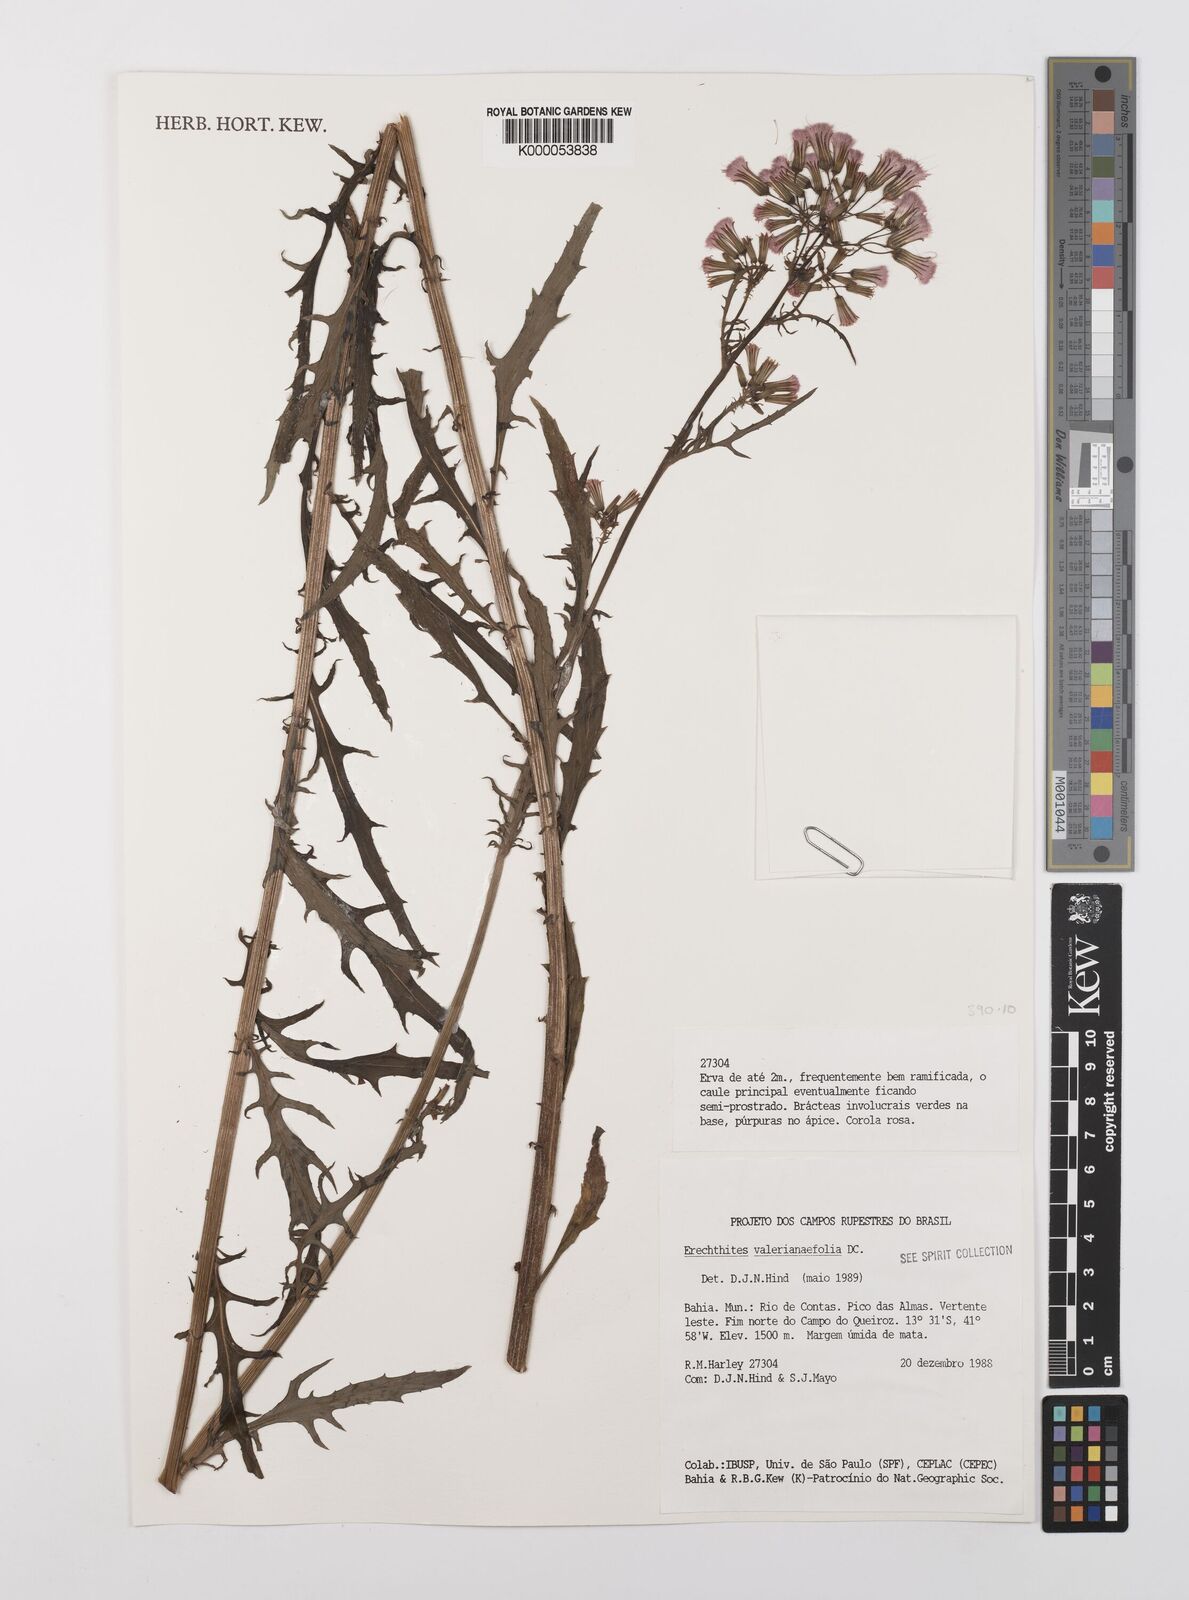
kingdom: Plantae
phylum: Tracheophyta
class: Magnoliopsida
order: Asterales
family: Asteraceae
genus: Erechtites
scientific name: Erechtites valerianifolius
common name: Tropical burnweed
